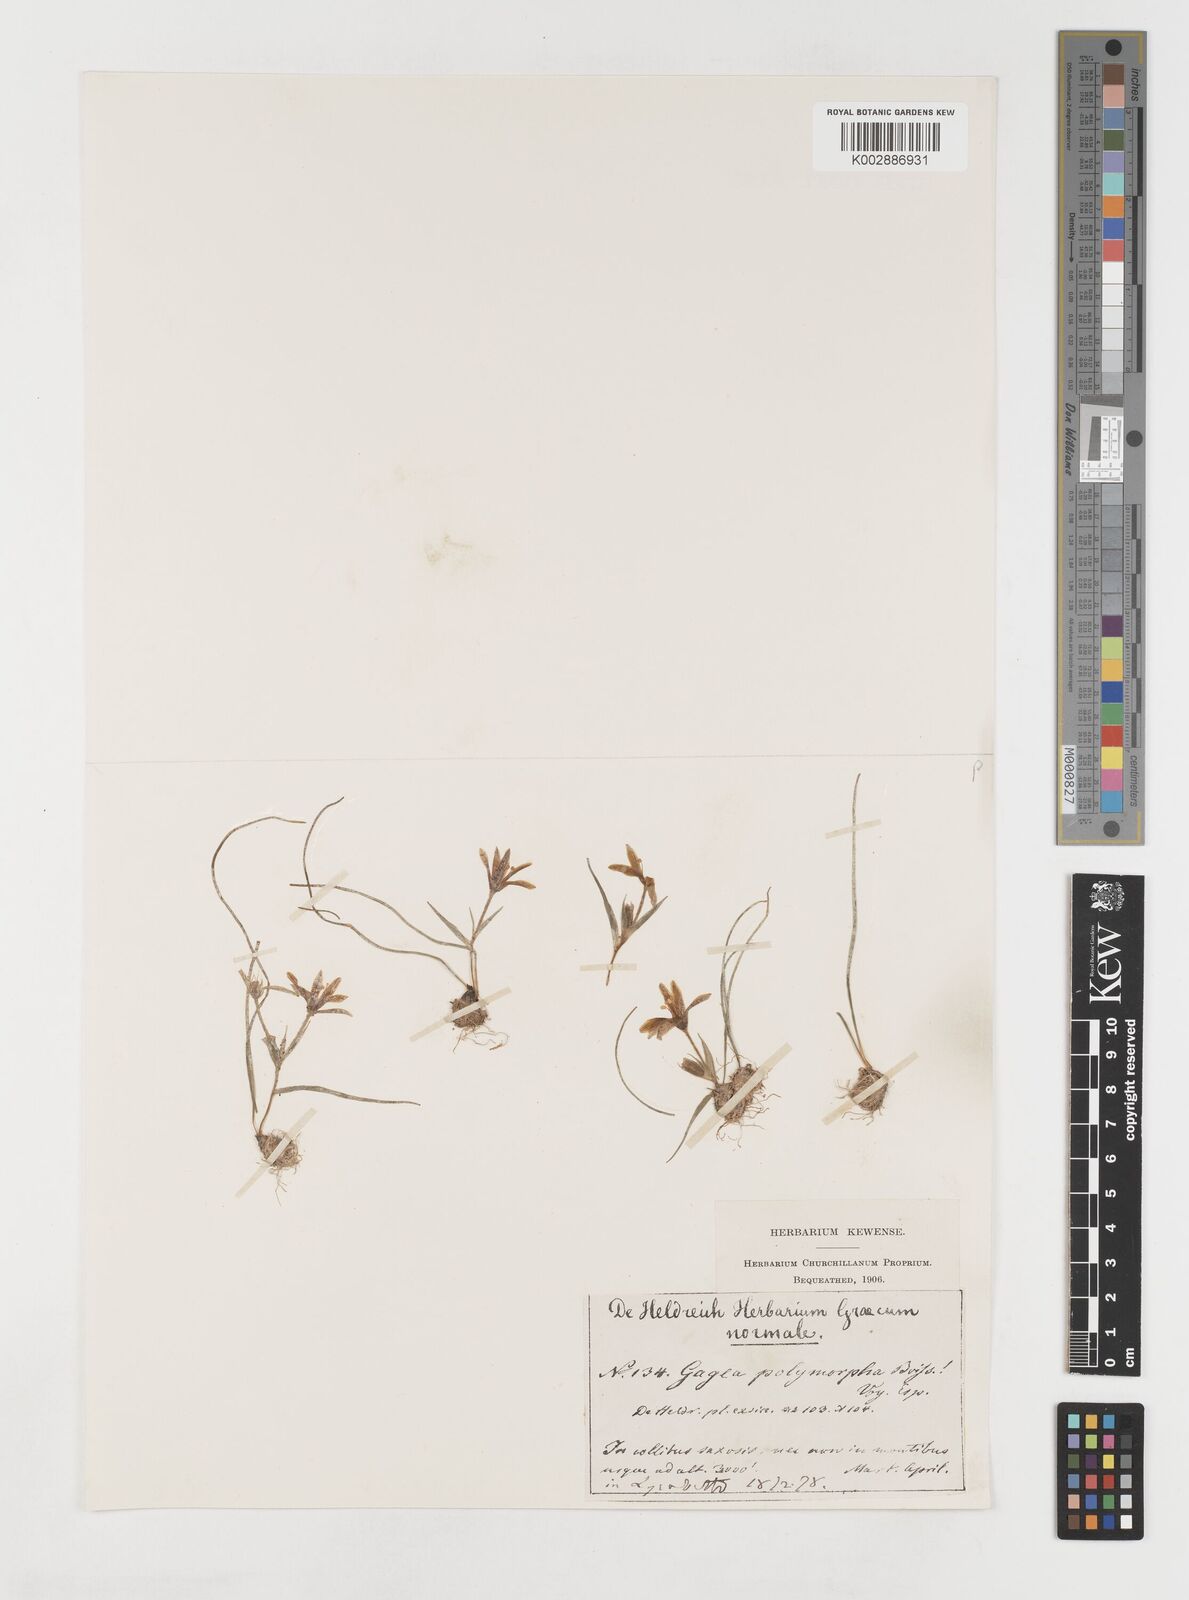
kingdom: Plantae
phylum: Tracheophyta
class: Liliopsida
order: Liliales
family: Liliaceae
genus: Gagea
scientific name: Gagea soleirolii
